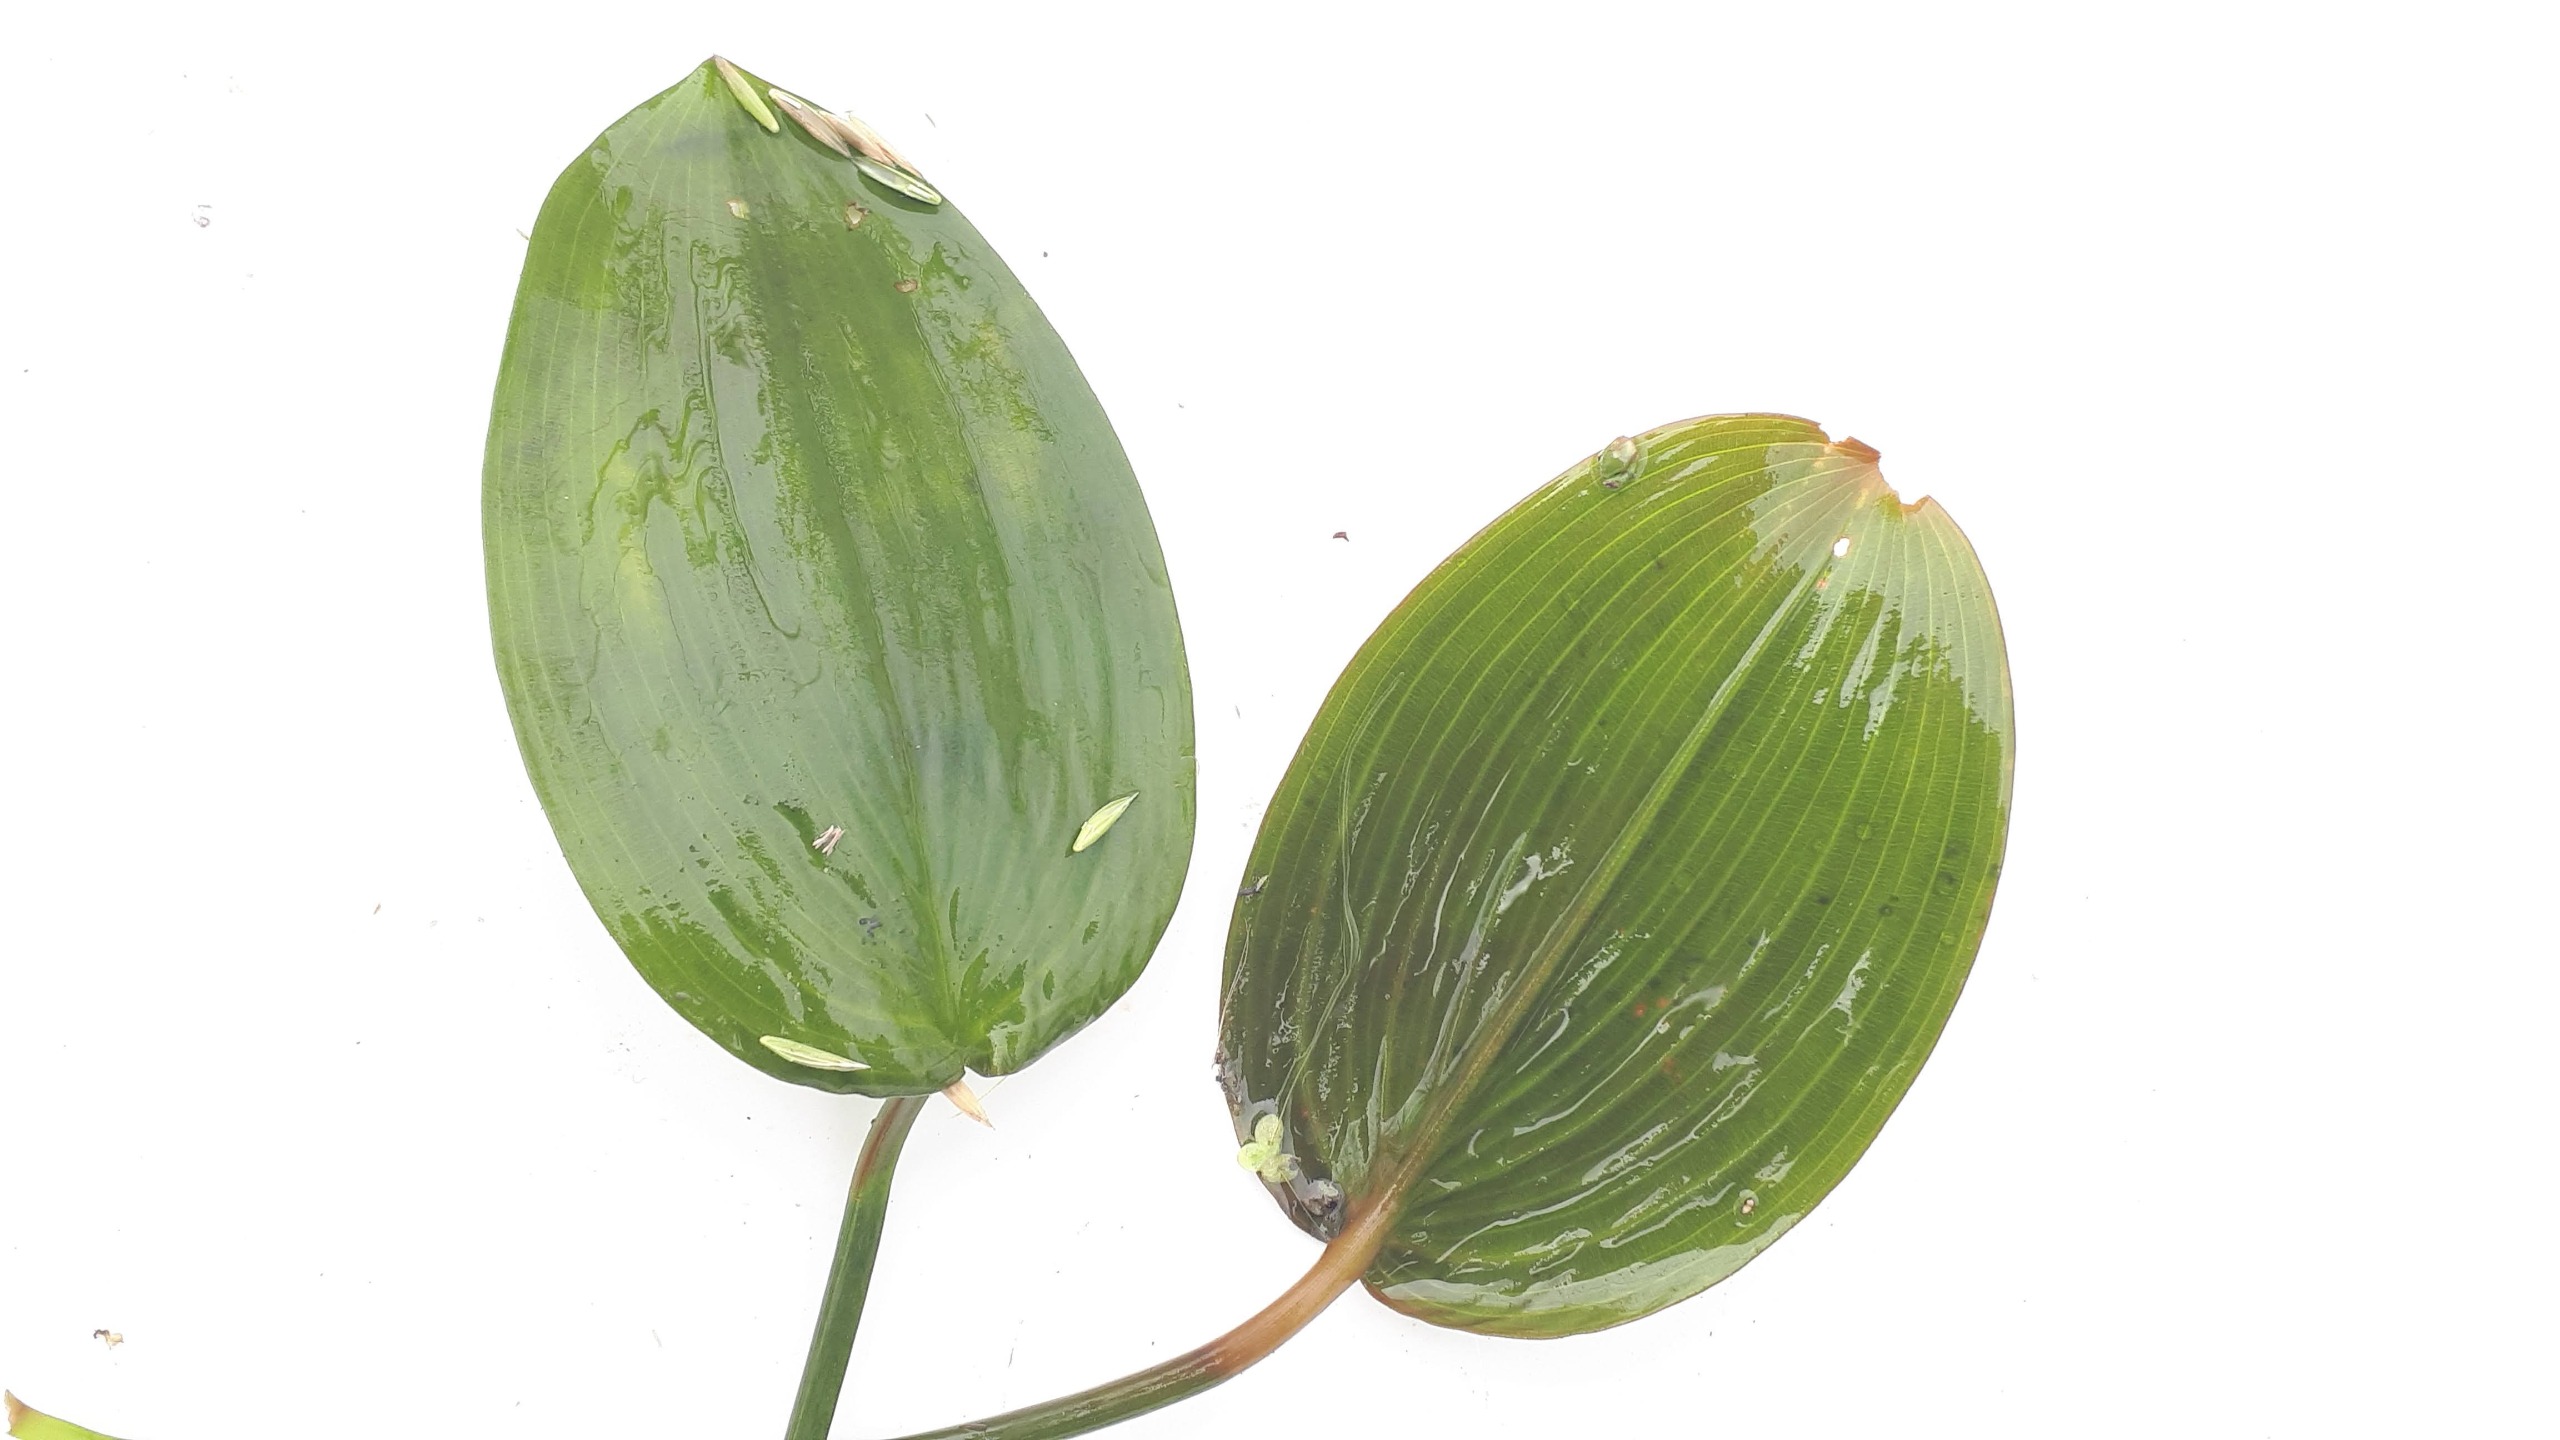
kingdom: Plantae
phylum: Tracheophyta
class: Liliopsida
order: Alismatales
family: Potamogetonaceae
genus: Potamogeton
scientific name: Potamogeton natans
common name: Svømmende vandaks
